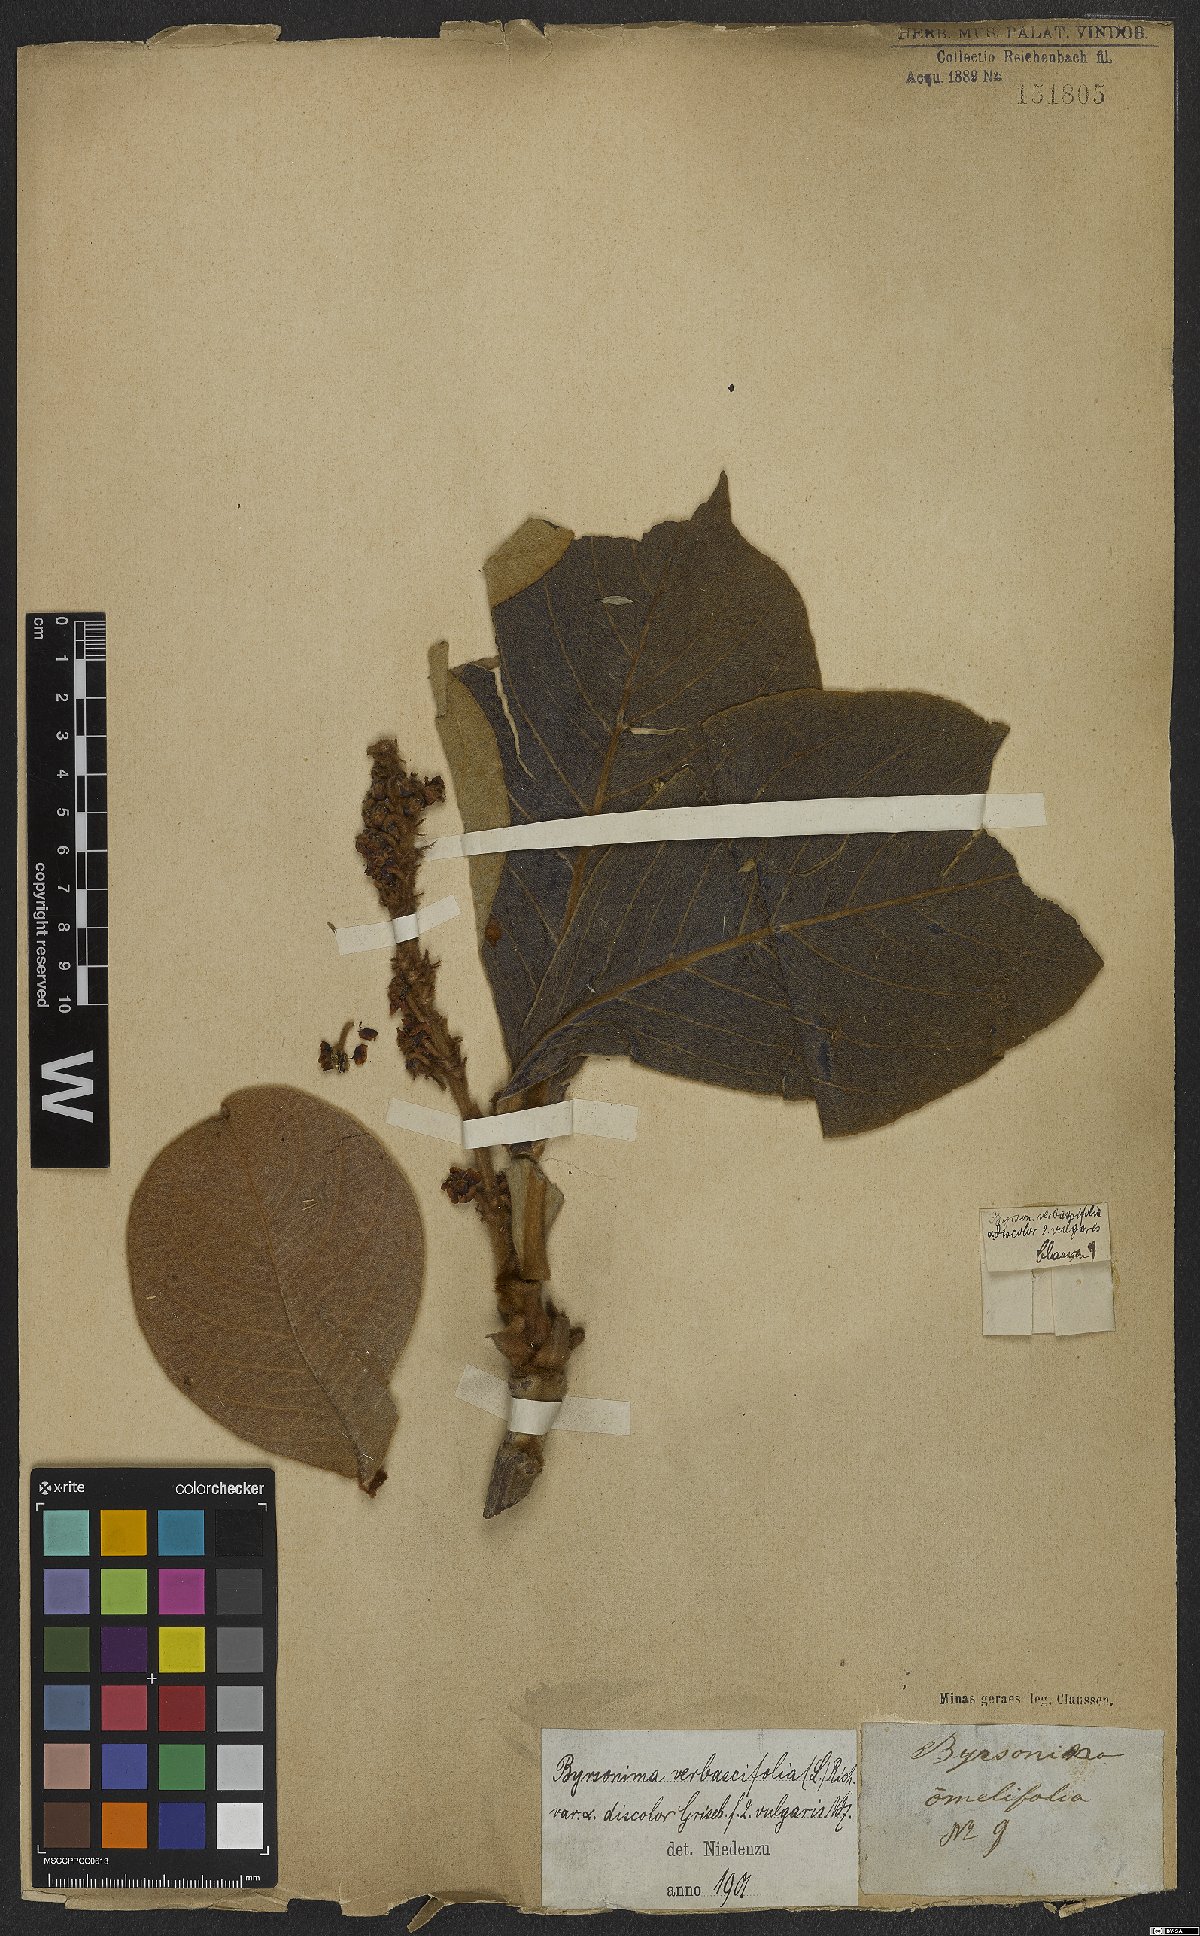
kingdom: Plantae
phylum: Tracheophyta
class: Magnoliopsida
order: Malpighiales
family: Malpighiaceae
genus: Byrsonima
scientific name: Byrsonima verbascifolia
